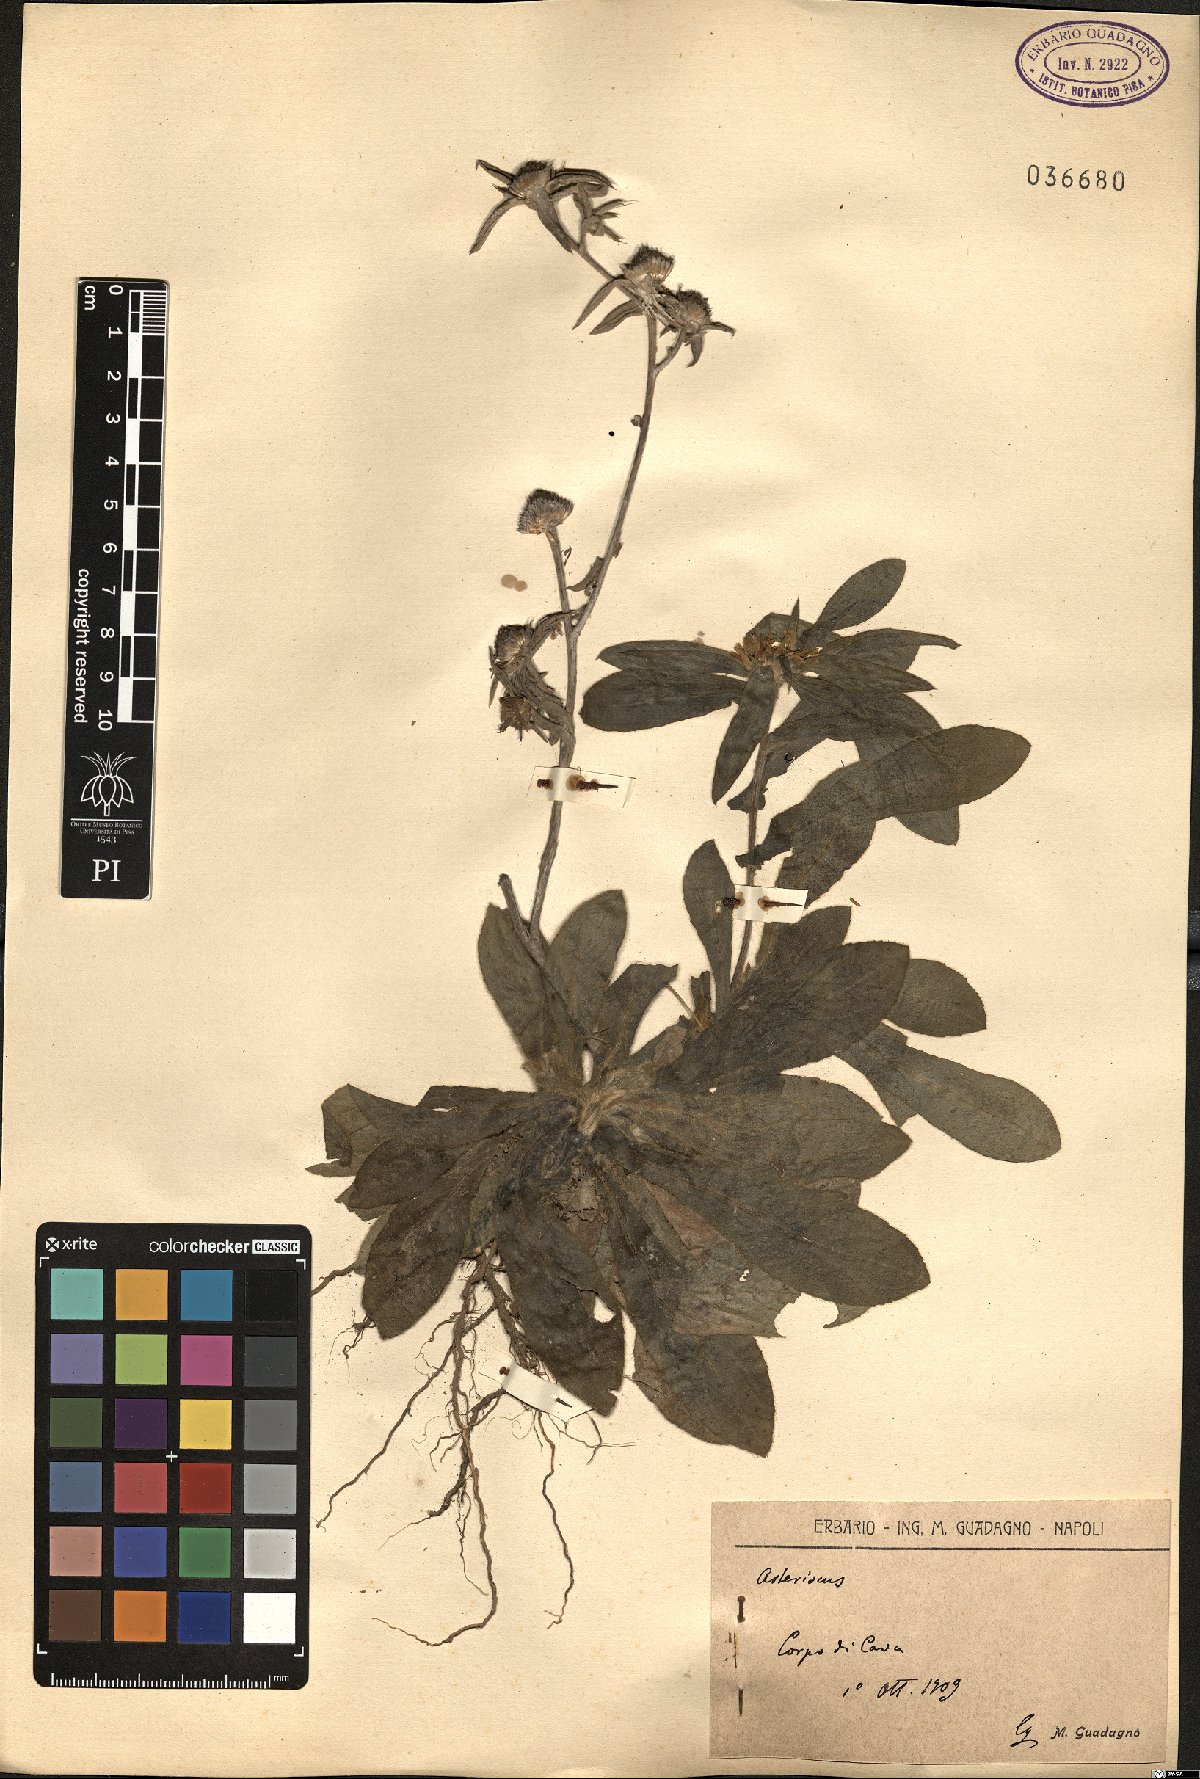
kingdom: Plantae
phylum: Tracheophyta
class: Magnoliopsida
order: Asterales
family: Asteraceae
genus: Asteriscus
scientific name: Asteriscus
